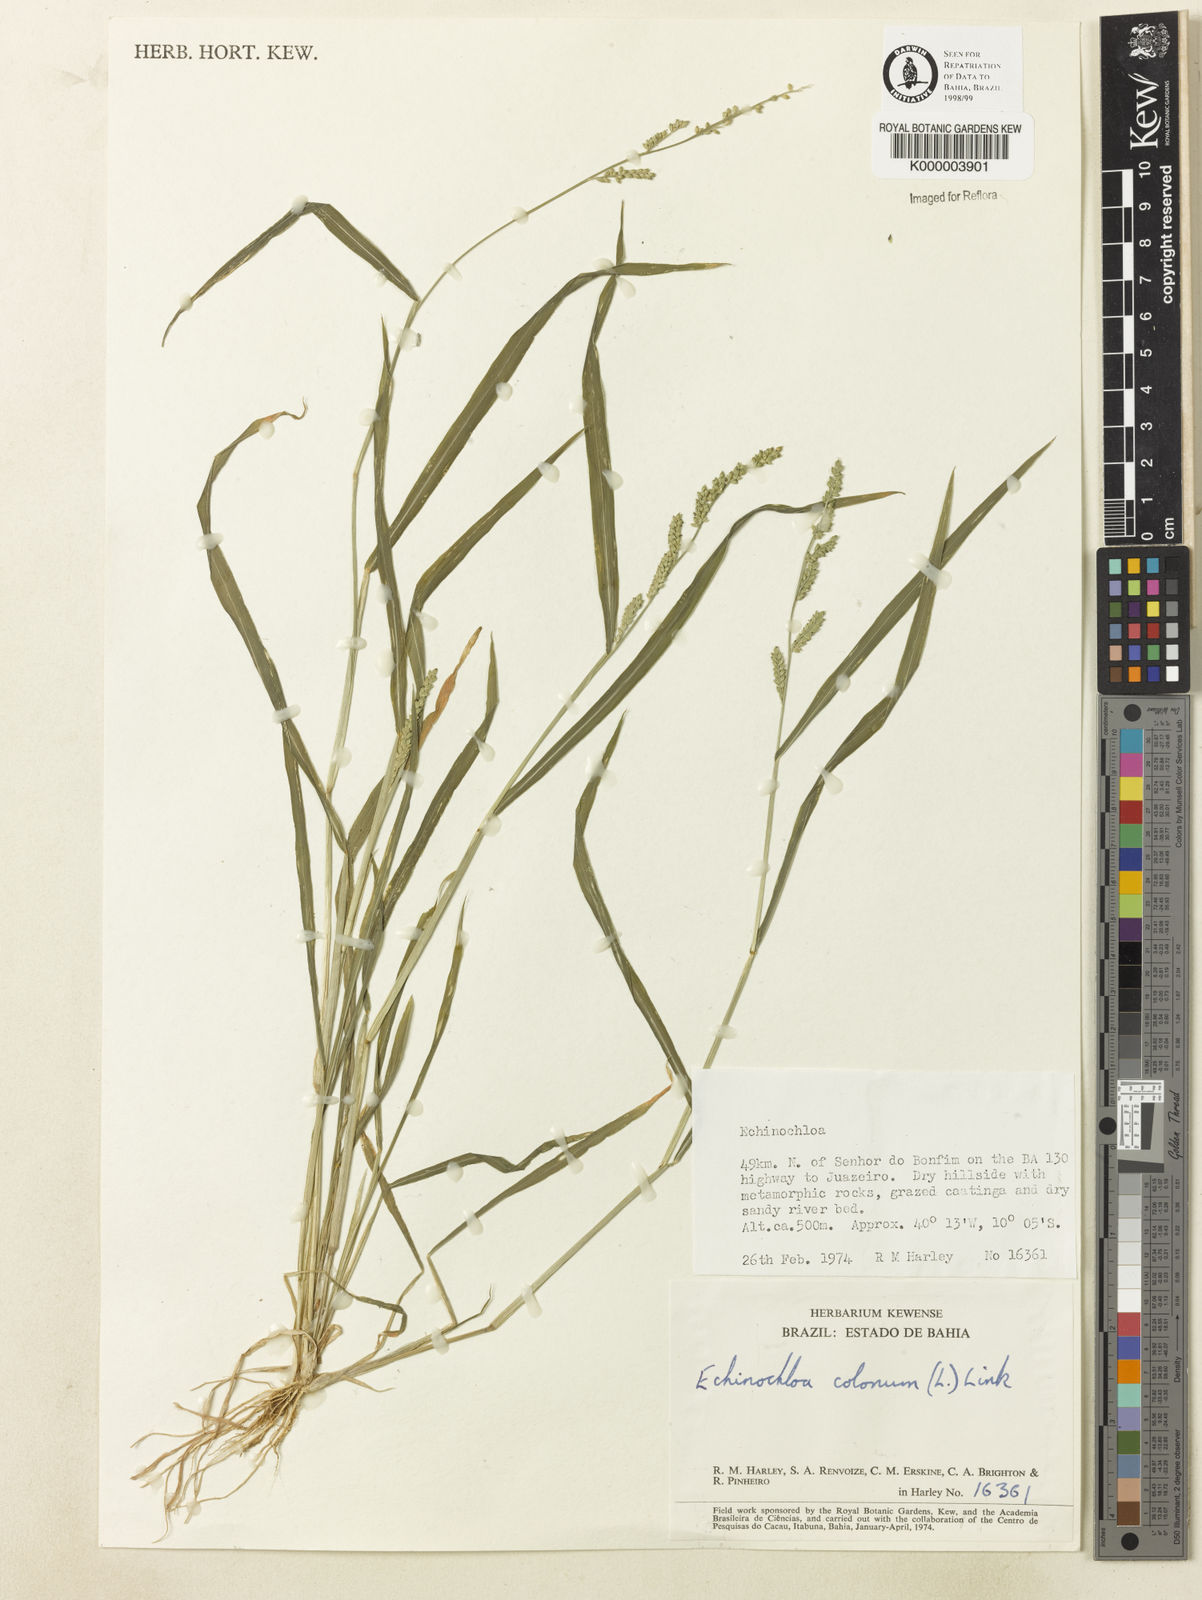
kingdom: Plantae
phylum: Tracheophyta
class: Liliopsida
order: Poales
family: Poaceae
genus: Echinochloa
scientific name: Echinochloa colonum
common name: Jungle rice
